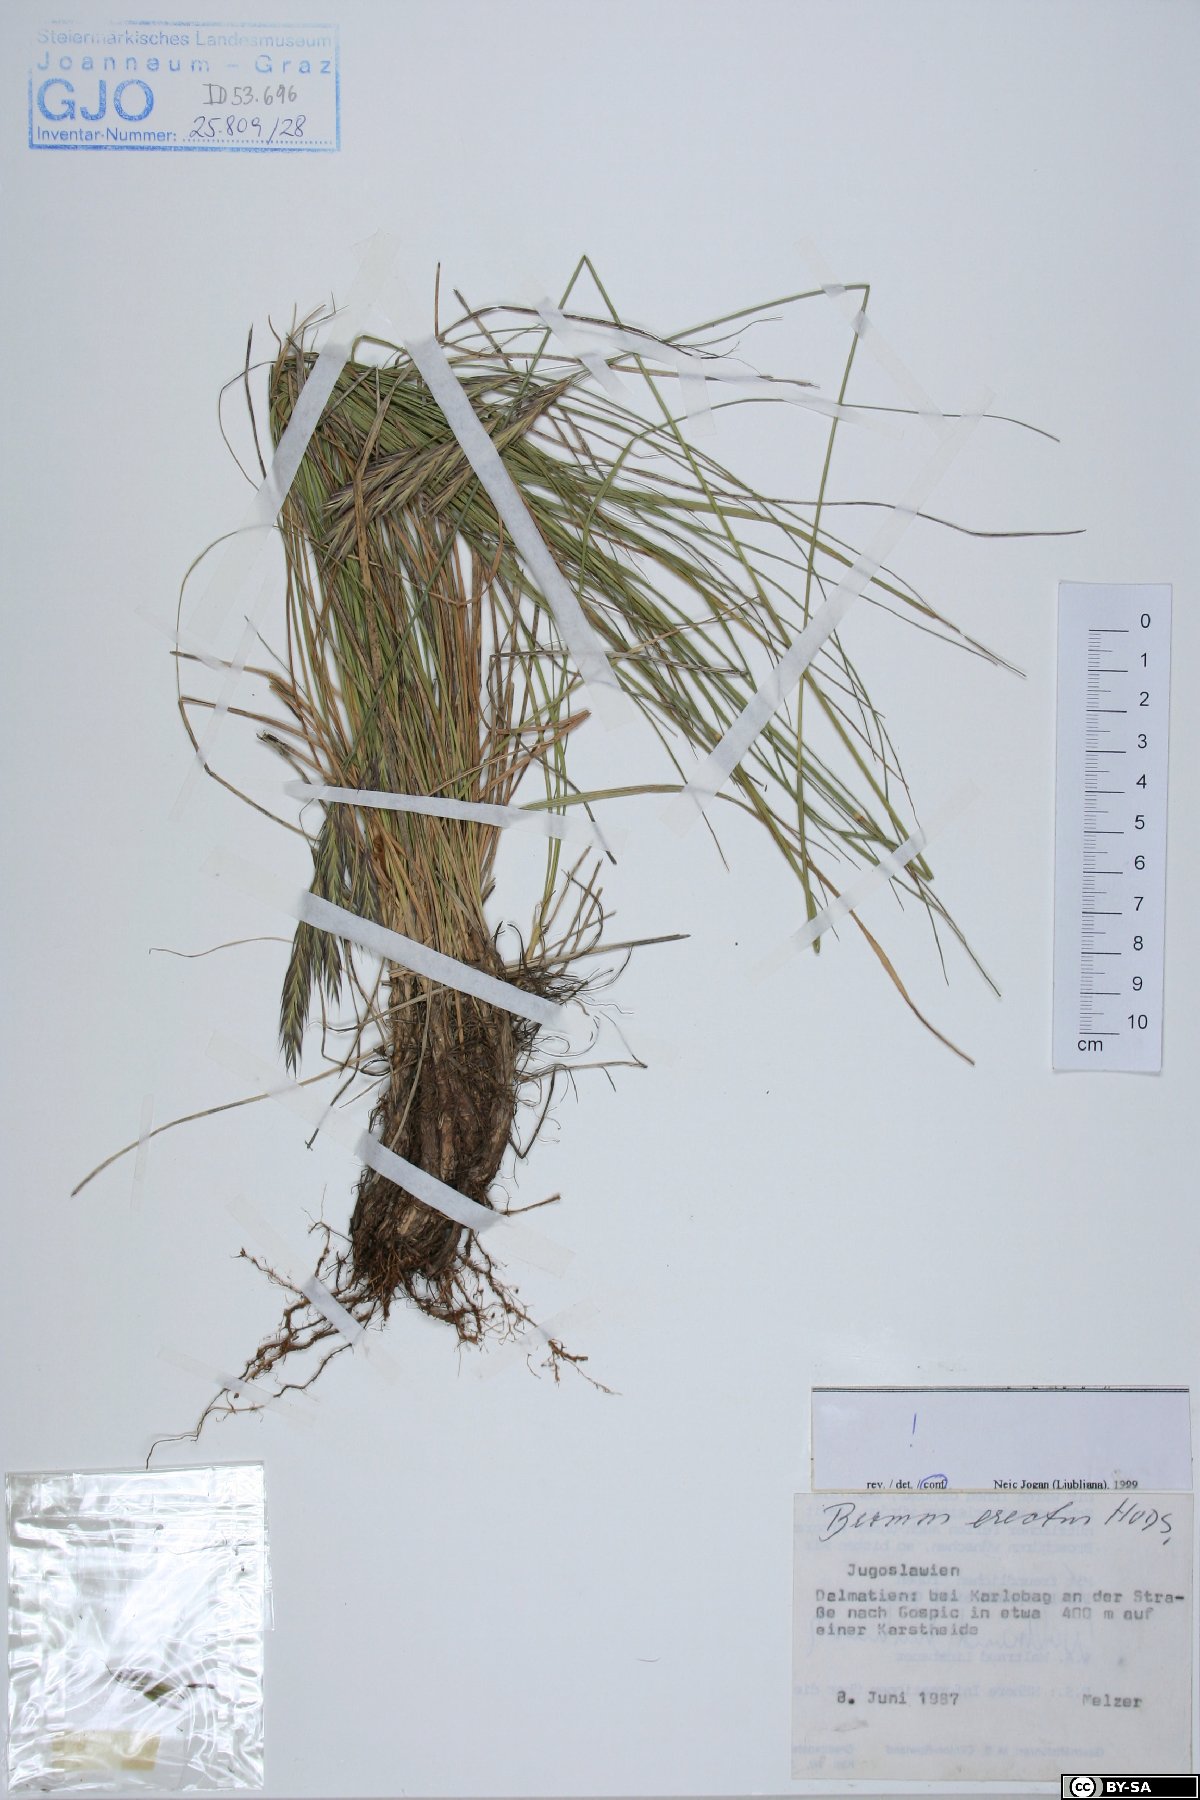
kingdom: Plantae
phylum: Tracheophyta
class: Liliopsida
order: Poales
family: Poaceae
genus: Bromus
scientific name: Bromus erectus
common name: Erect brome
